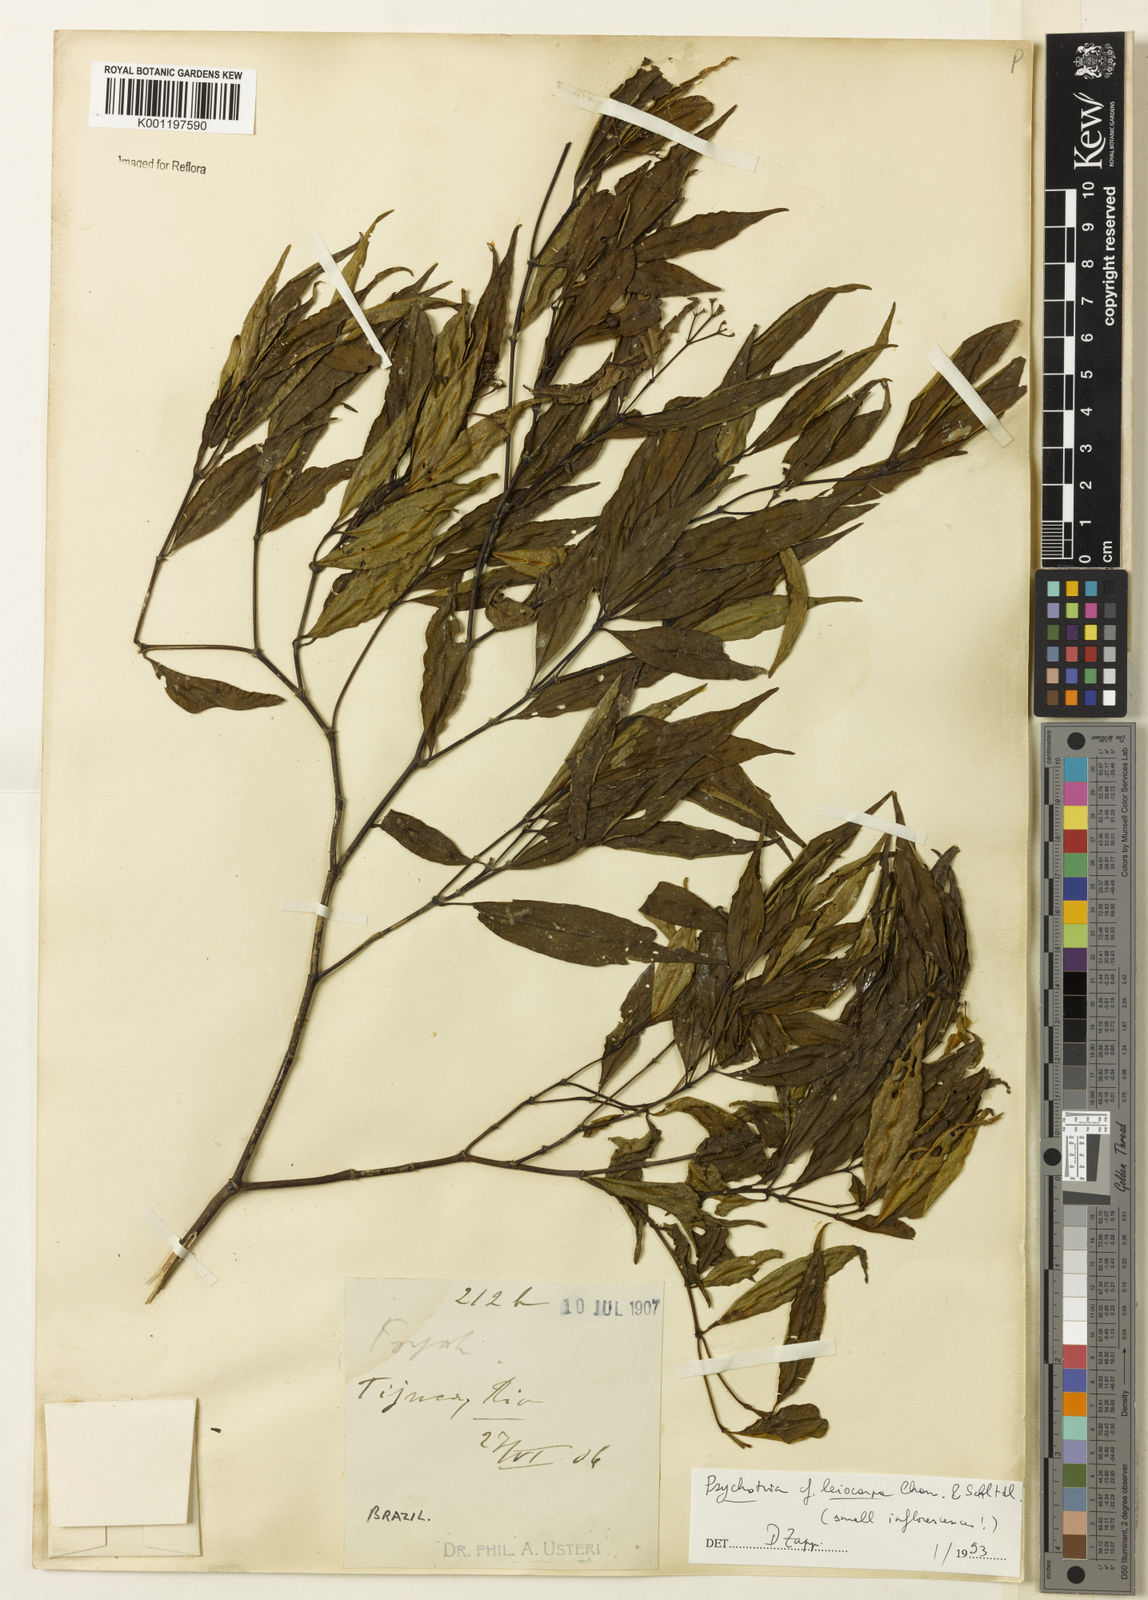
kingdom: Plantae
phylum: Tracheophyta
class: Magnoliopsida
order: Gentianales
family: Rubiaceae
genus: Psychotria
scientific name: Psychotria leiocarpa
